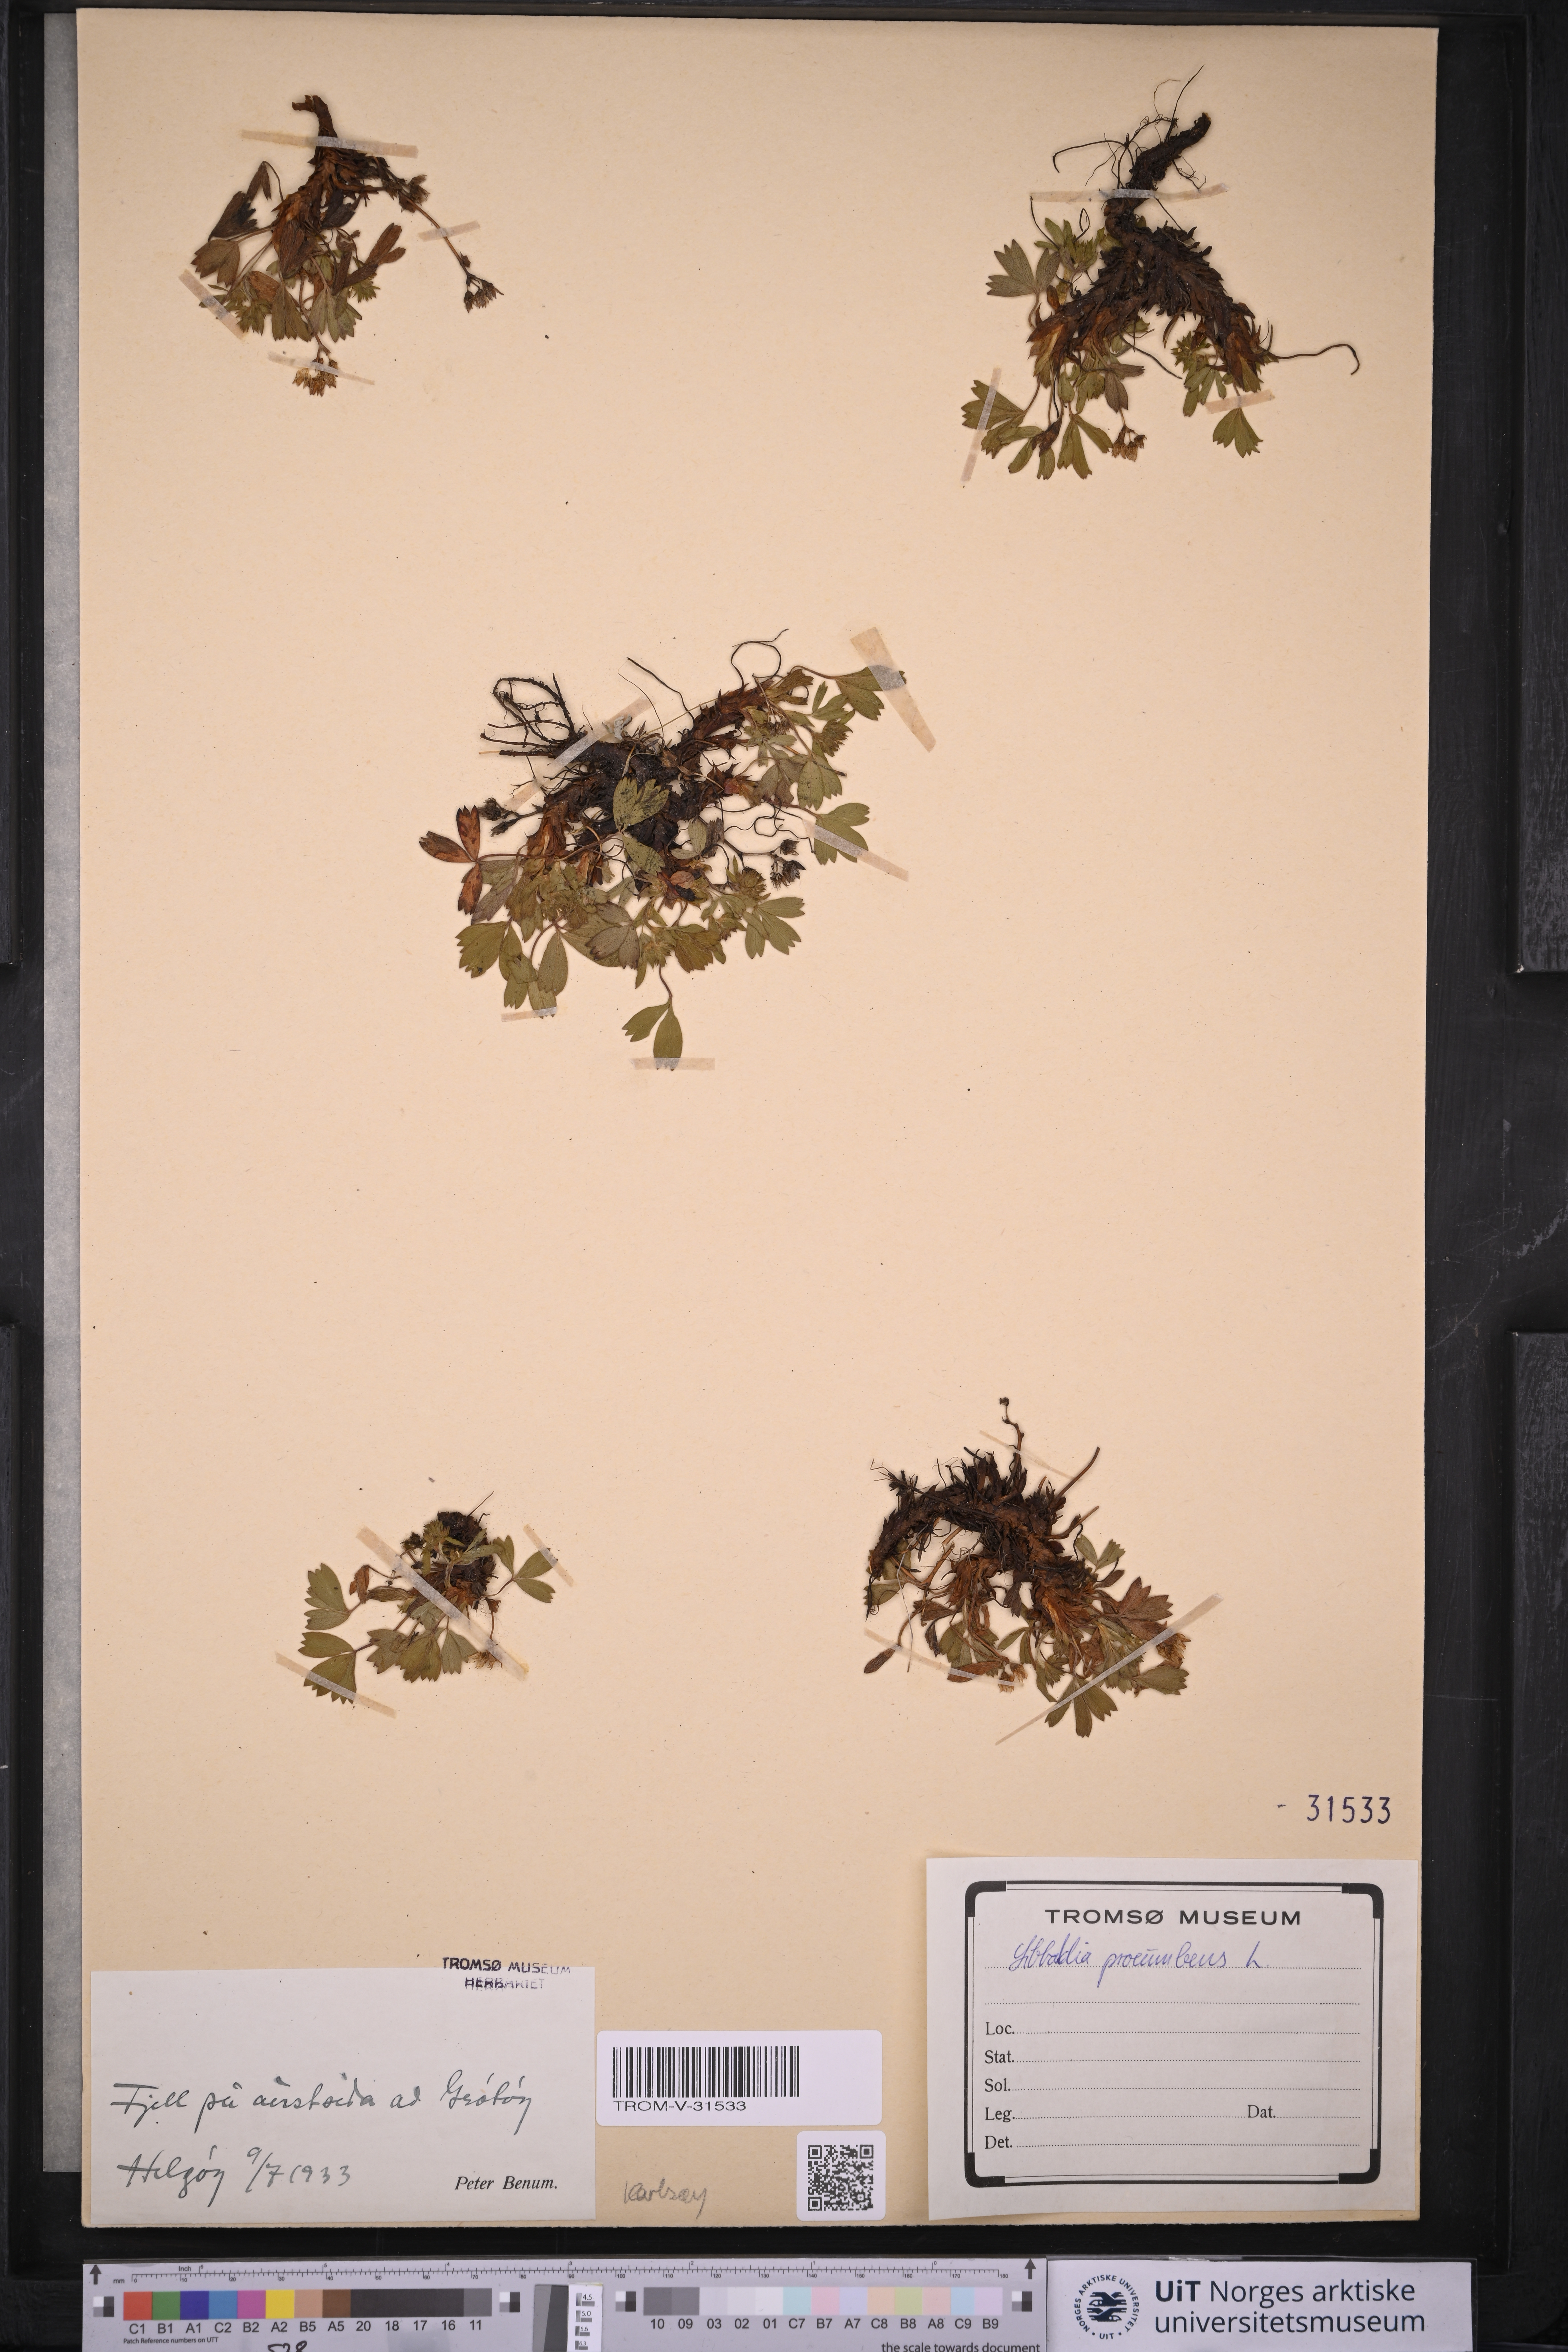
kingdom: Plantae
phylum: Tracheophyta
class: Magnoliopsida
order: Rosales
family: Rosaceae
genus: Sibbaldia
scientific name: Sibbaldia procumbens
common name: Creeping sibbaldia
